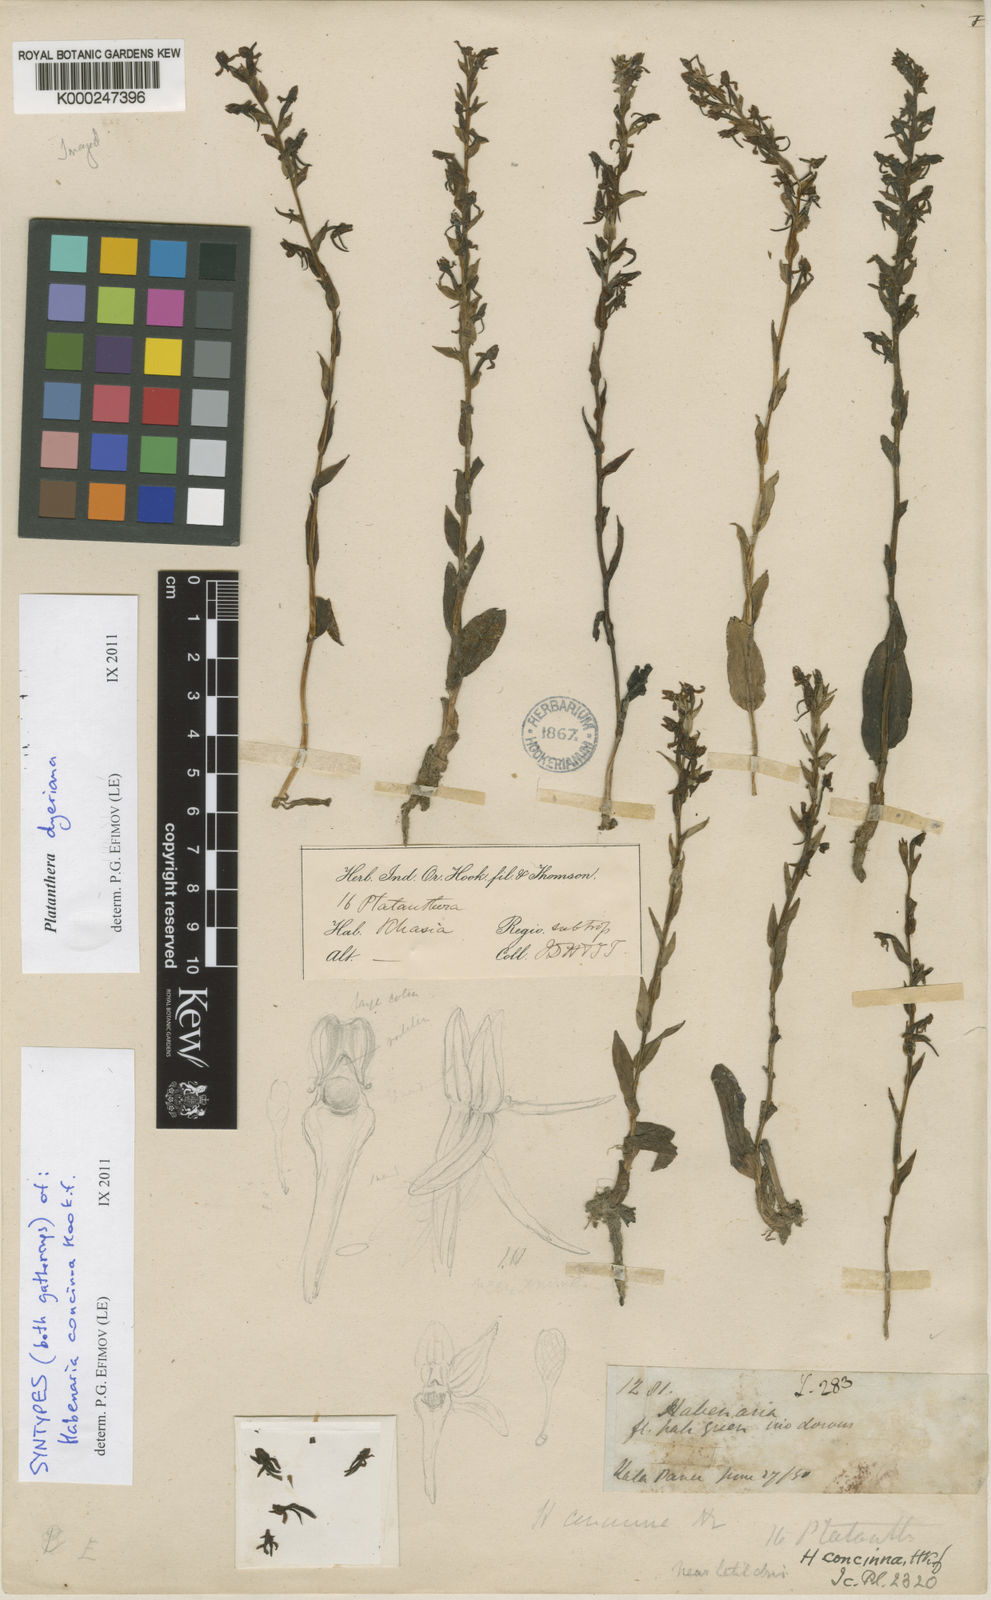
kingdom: Plantae
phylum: Tracheophyta
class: Liliopsida
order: Asparagales
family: Orchidaceae
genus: Platanthera
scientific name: Platanthera concinna
